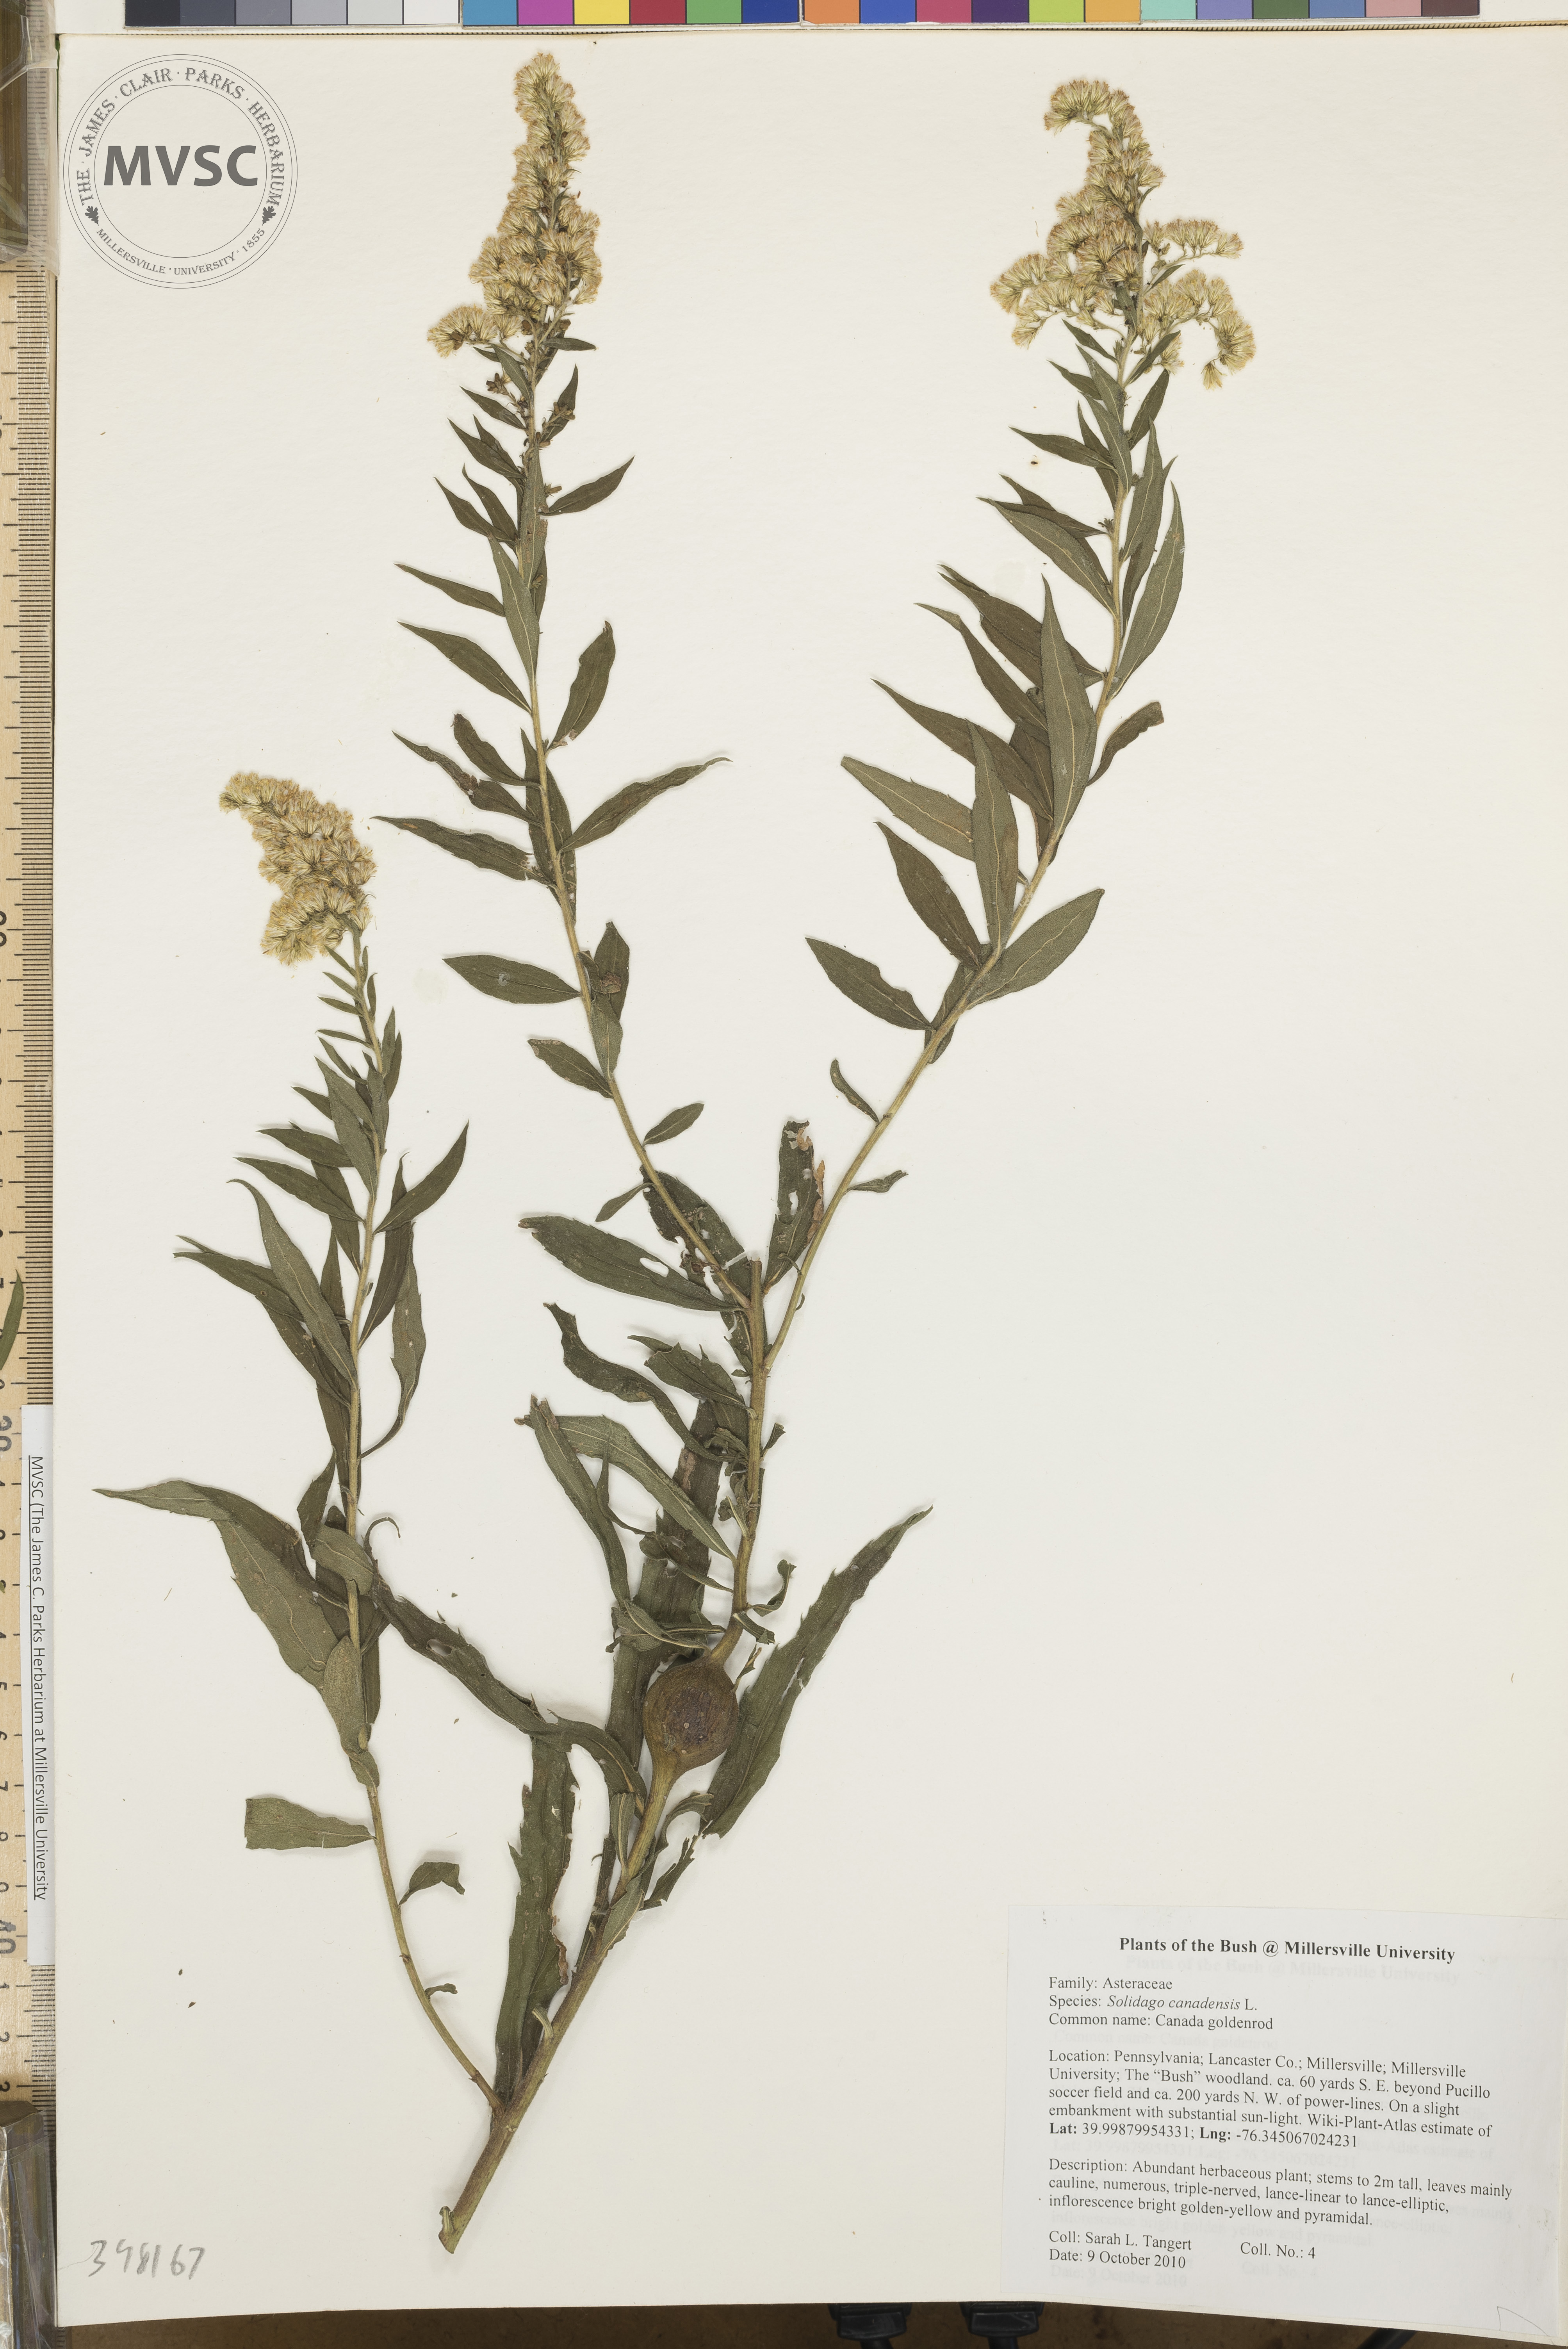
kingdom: Plantae
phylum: Tracheophyta
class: Magnoliopsida
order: Asterales
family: Asteraceae
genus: Solidago
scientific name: Solidago altissima
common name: Late goldenrod
